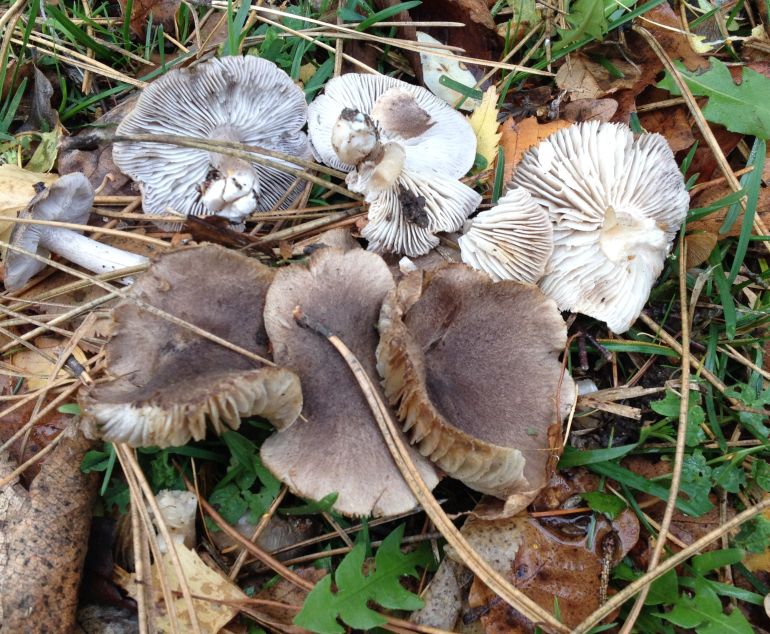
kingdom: Fungi
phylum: Basidiomycota
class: Agaricomycetes
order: Agaricales
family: Tricholomataceae
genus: Tricholoma
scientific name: Tricholoma terreum
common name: jordfarvet ridderhat
